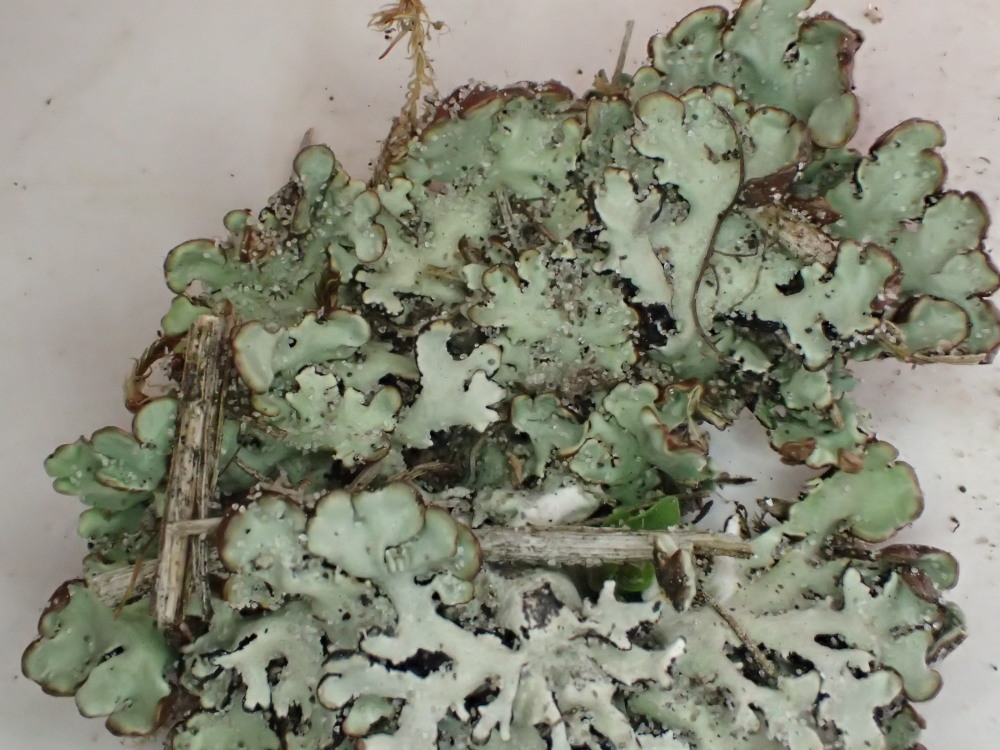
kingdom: Fungi
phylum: Ascomycota
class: Lecanoromycetes
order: Lecanorales
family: Parmeliaceae
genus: Hypogymnia
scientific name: Hypogymnia physodes
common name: almindelig kvistlav
